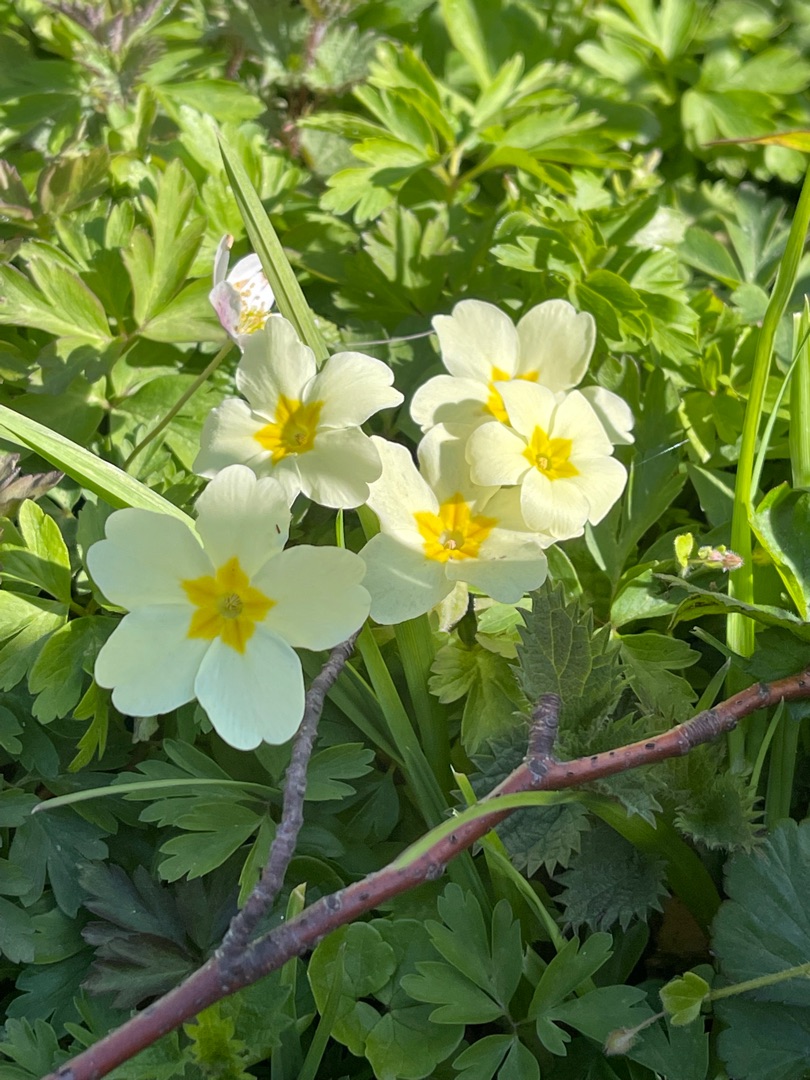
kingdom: Plantae
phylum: Tracheophyta
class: Magnoliopsida
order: Ericales
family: Primulaceae
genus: Primula
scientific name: Primula vulgaris
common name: Storblomstret kodriver
